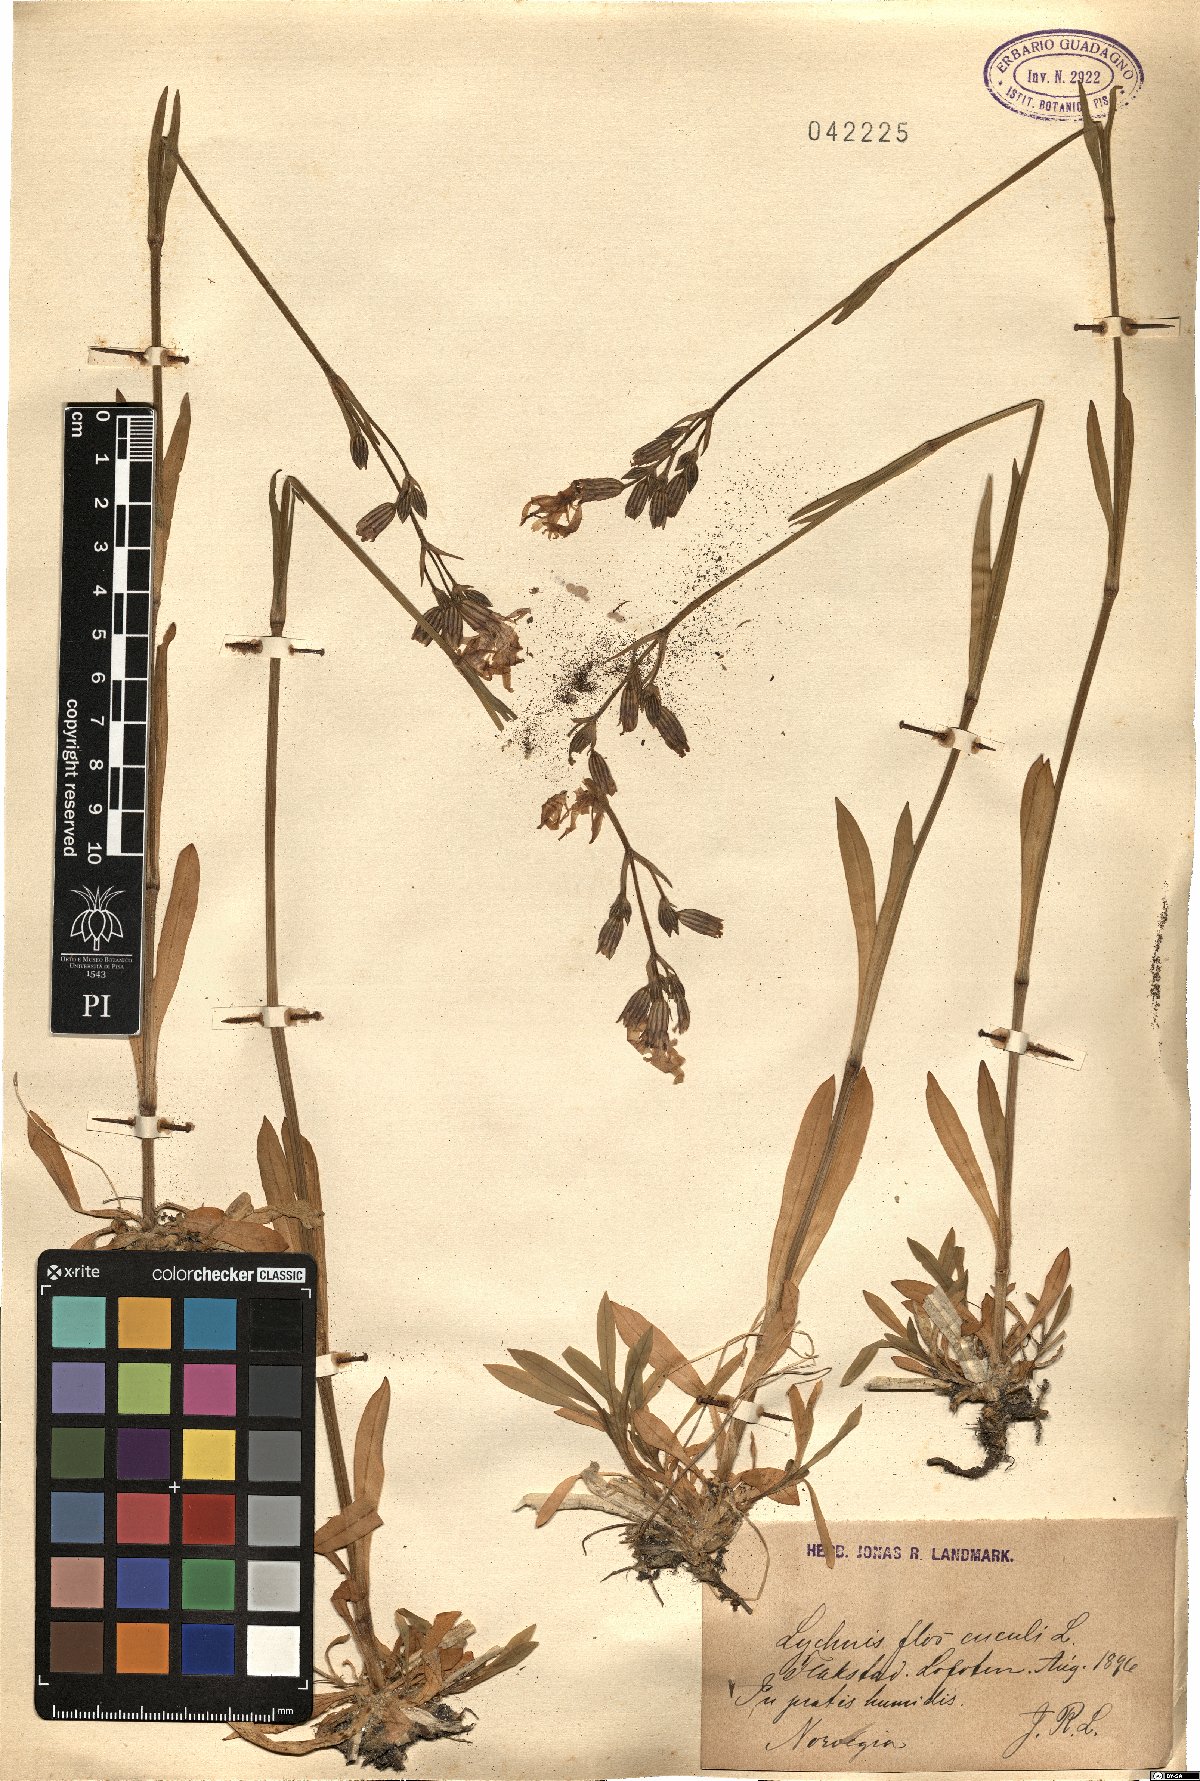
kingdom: Plantae
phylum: Tracheophyta
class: Magnoliopsida
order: Caryophyllales
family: Caryophyllaceae
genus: Silene
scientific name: Silene flos-cuculi
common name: Ragged-robin
